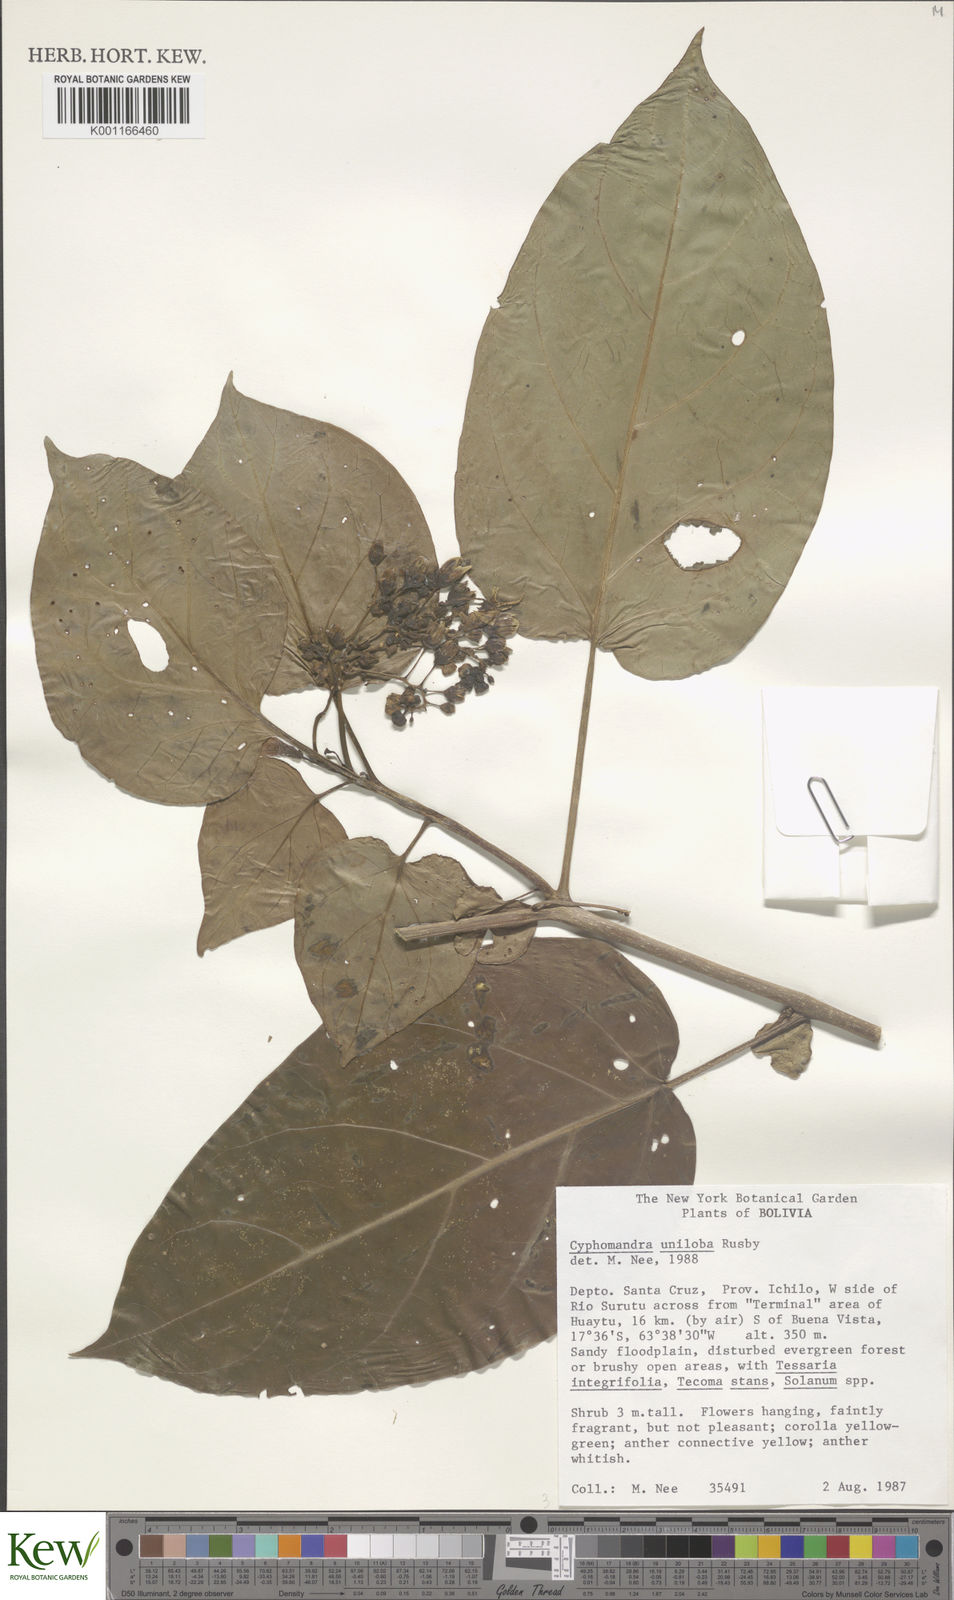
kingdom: Plantae
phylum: Tracheophyta
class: Magnoliopsida
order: Solanales
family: Solanaceae
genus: Solanum
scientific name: Solanum unilobum
